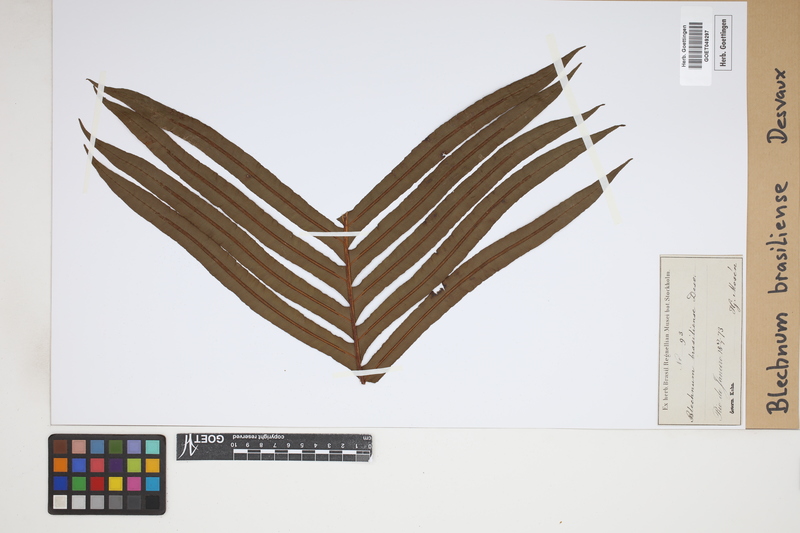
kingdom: Plantae
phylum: Tracheophyta
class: Polypodiopsida
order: Polypodiales
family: Blechnaceae
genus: Neoblechnum
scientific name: Neoblechnum brasiliense
